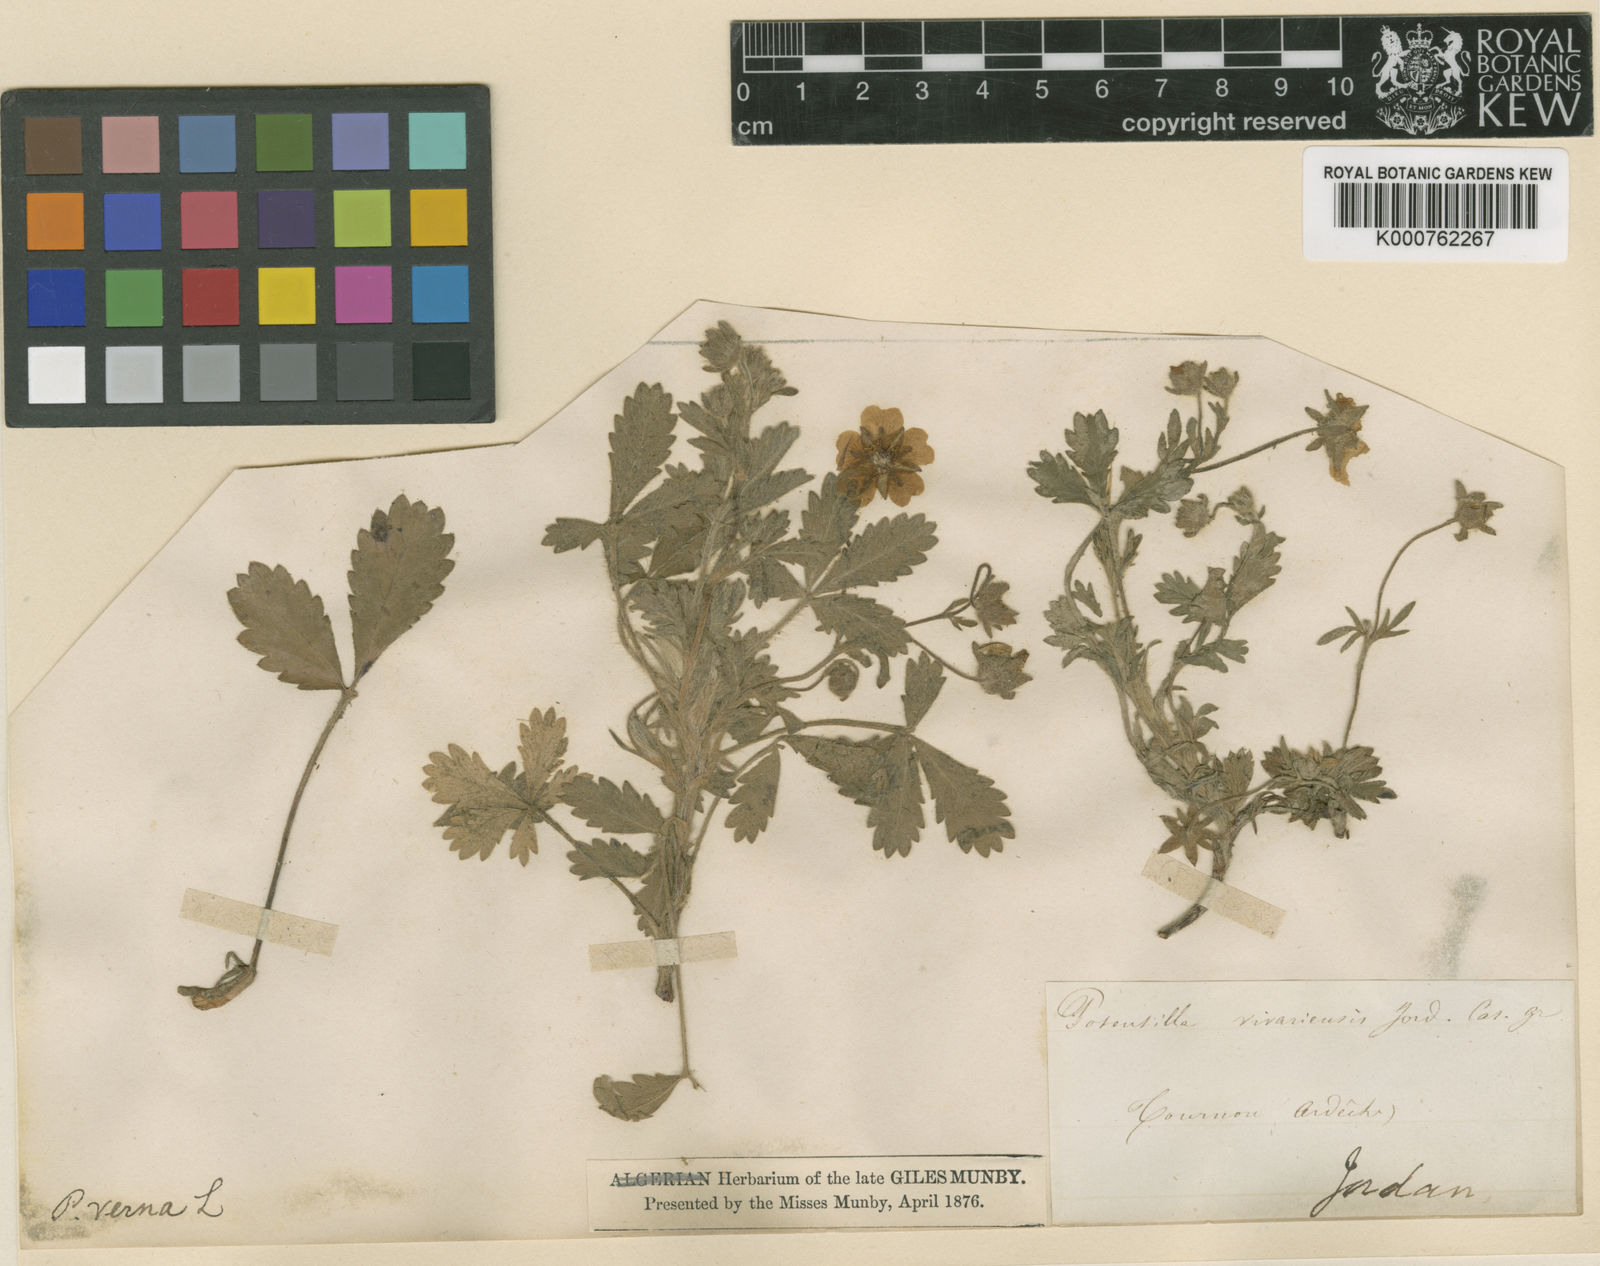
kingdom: Plantae
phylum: Tracheophyta
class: Magnoliopsida
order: Rosales
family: Rosaceae
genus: Potentilla
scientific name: Potentilla verna
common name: Spring cinquefoil
